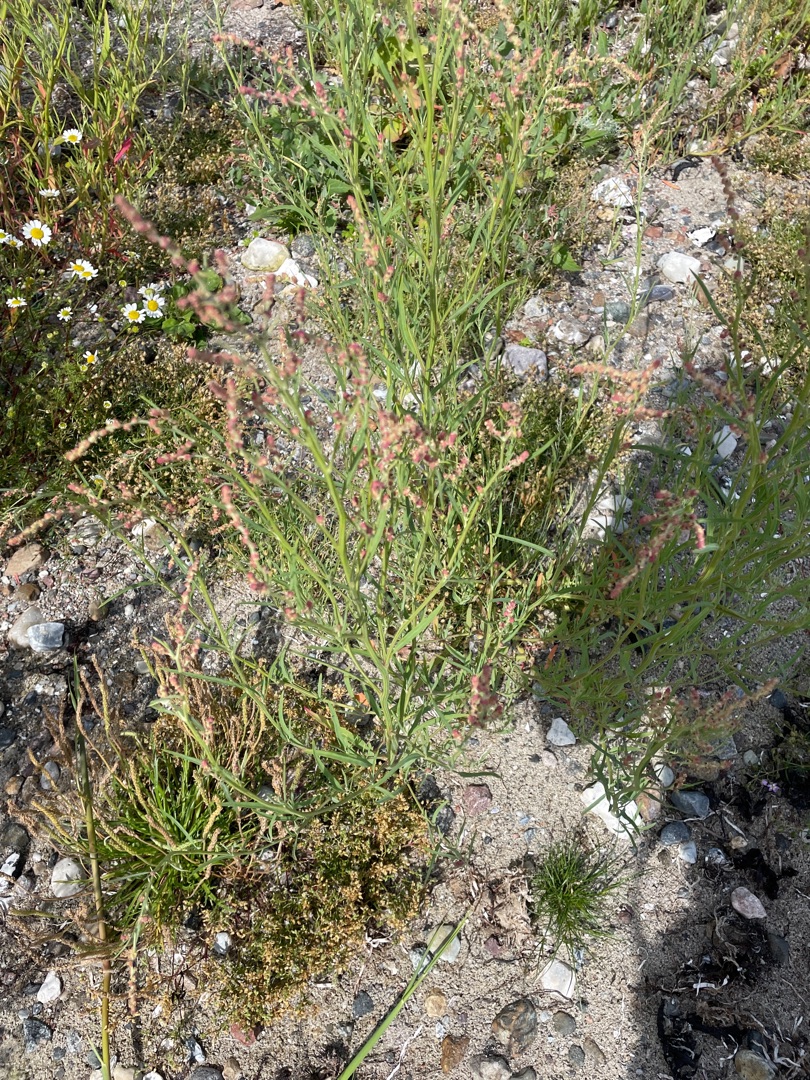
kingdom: Plantae
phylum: Tracheophyta
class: Magnoliopsida
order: Caryophyllales
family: Amaranthaceae
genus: Atriplex
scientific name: Atriplex littoralis
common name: Strand-mælde
